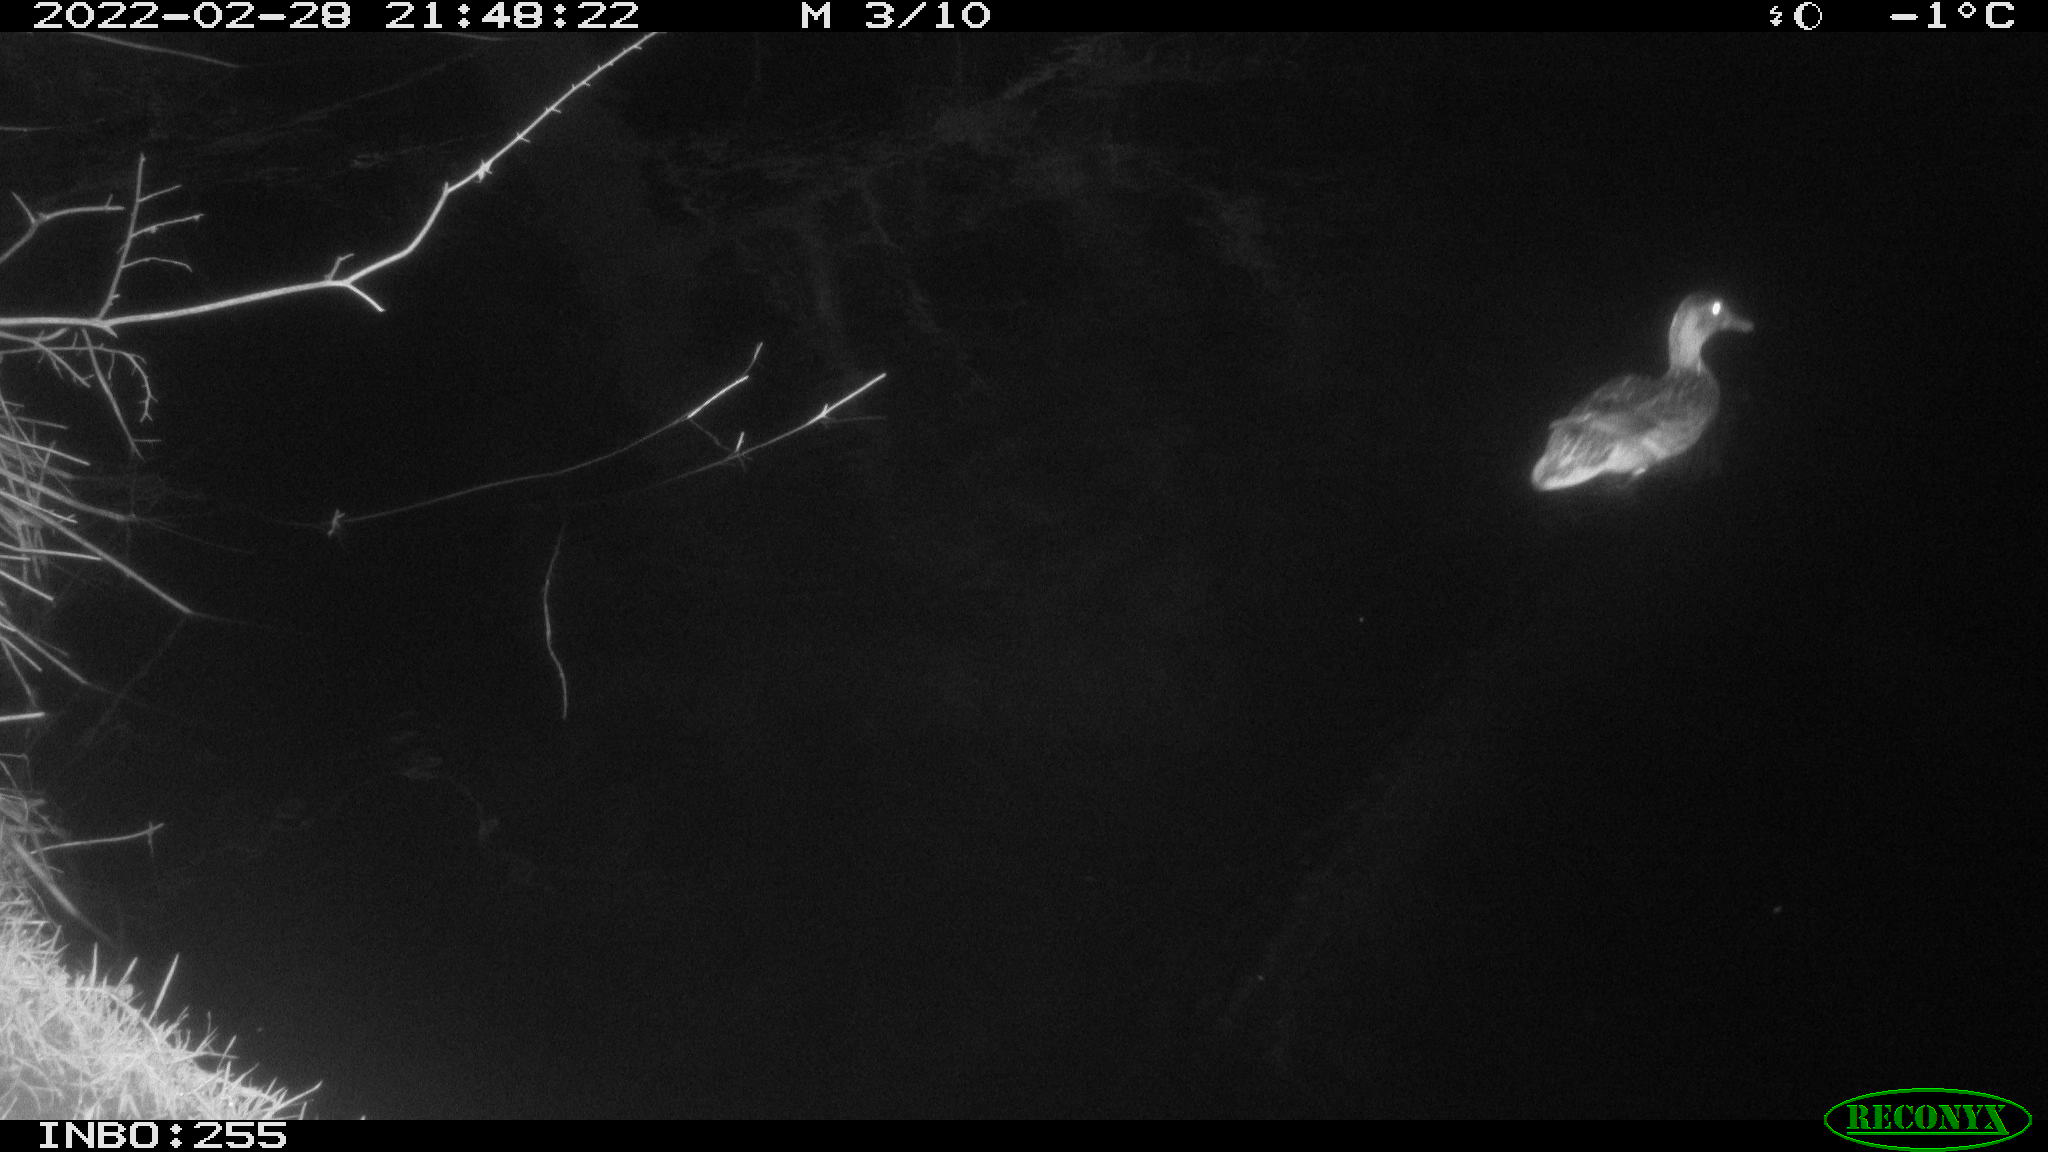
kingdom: Animalia
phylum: Chordata
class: Aves
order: Anseriformes
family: Anatidae
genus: Anas
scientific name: Anas platyrhynchos
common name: Mallard
